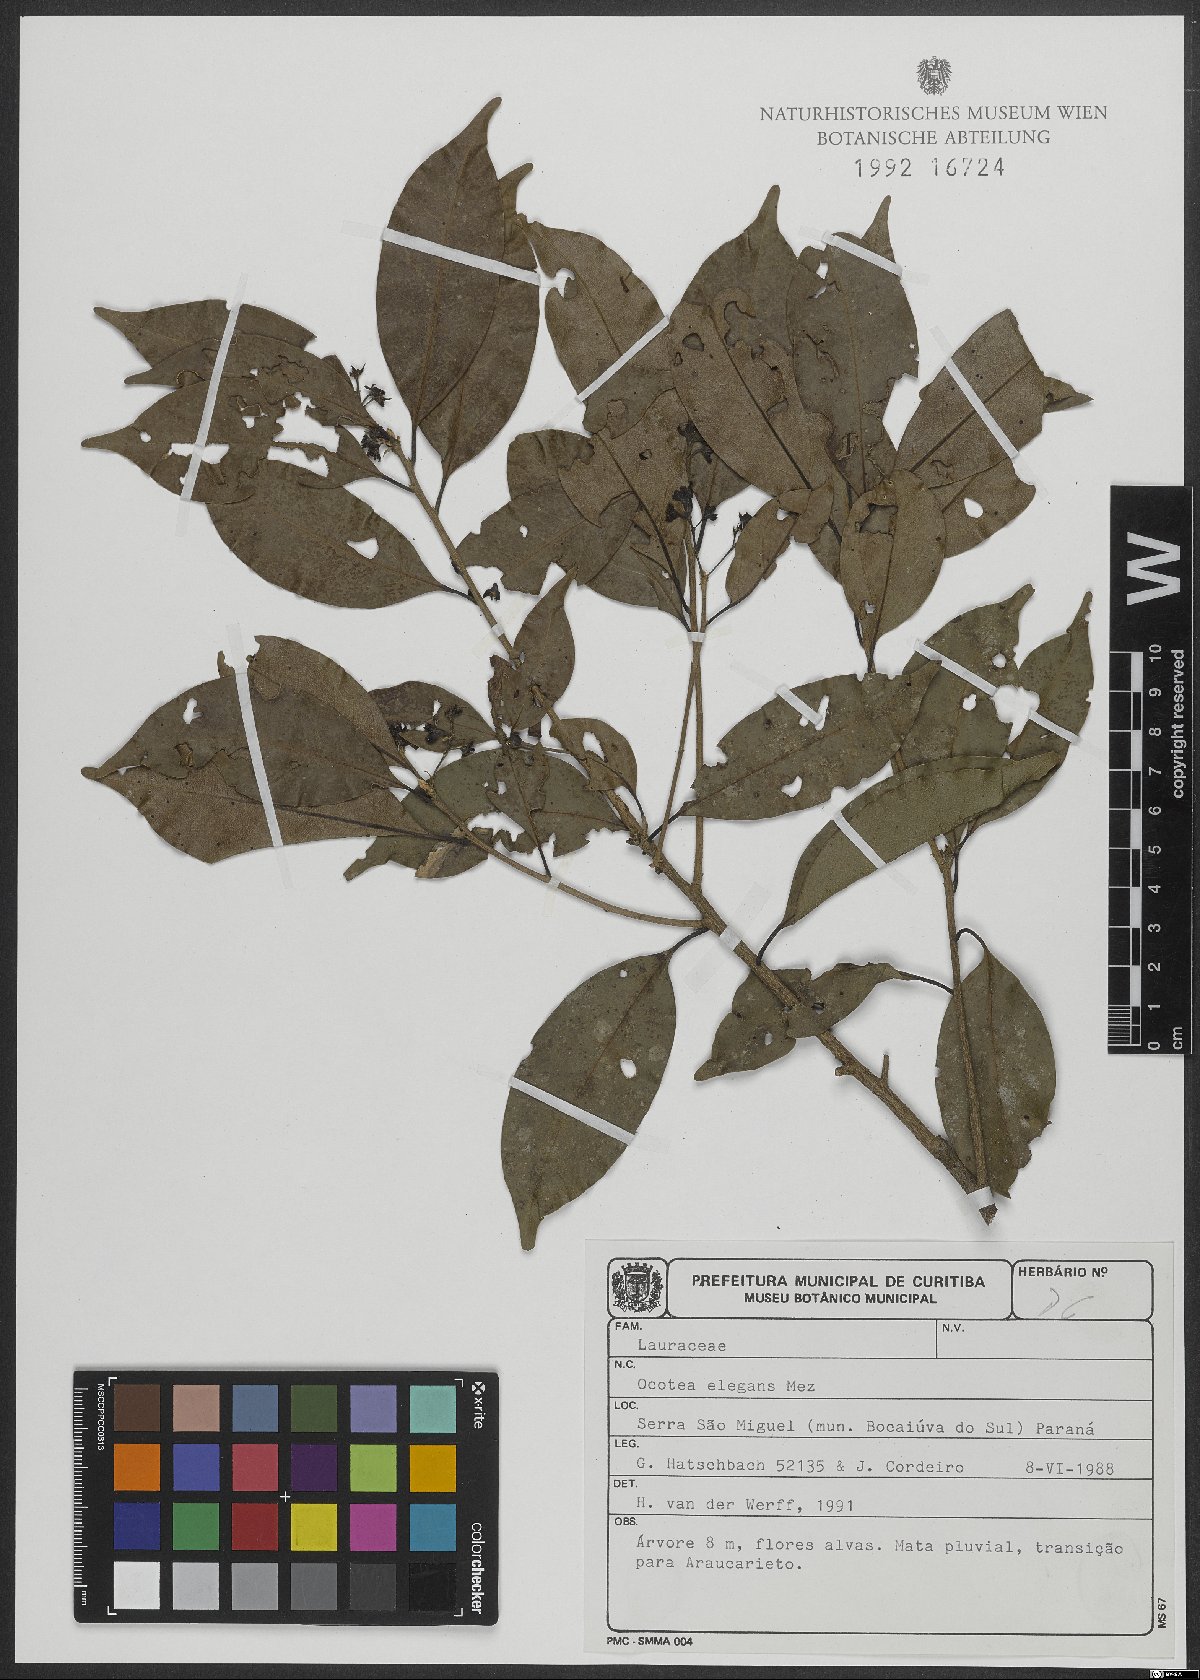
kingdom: Plantae
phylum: Tracheophyta
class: Magnoliopsida
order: Laurales
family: Lauraceae
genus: Ocotea
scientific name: Ocotea elegans
